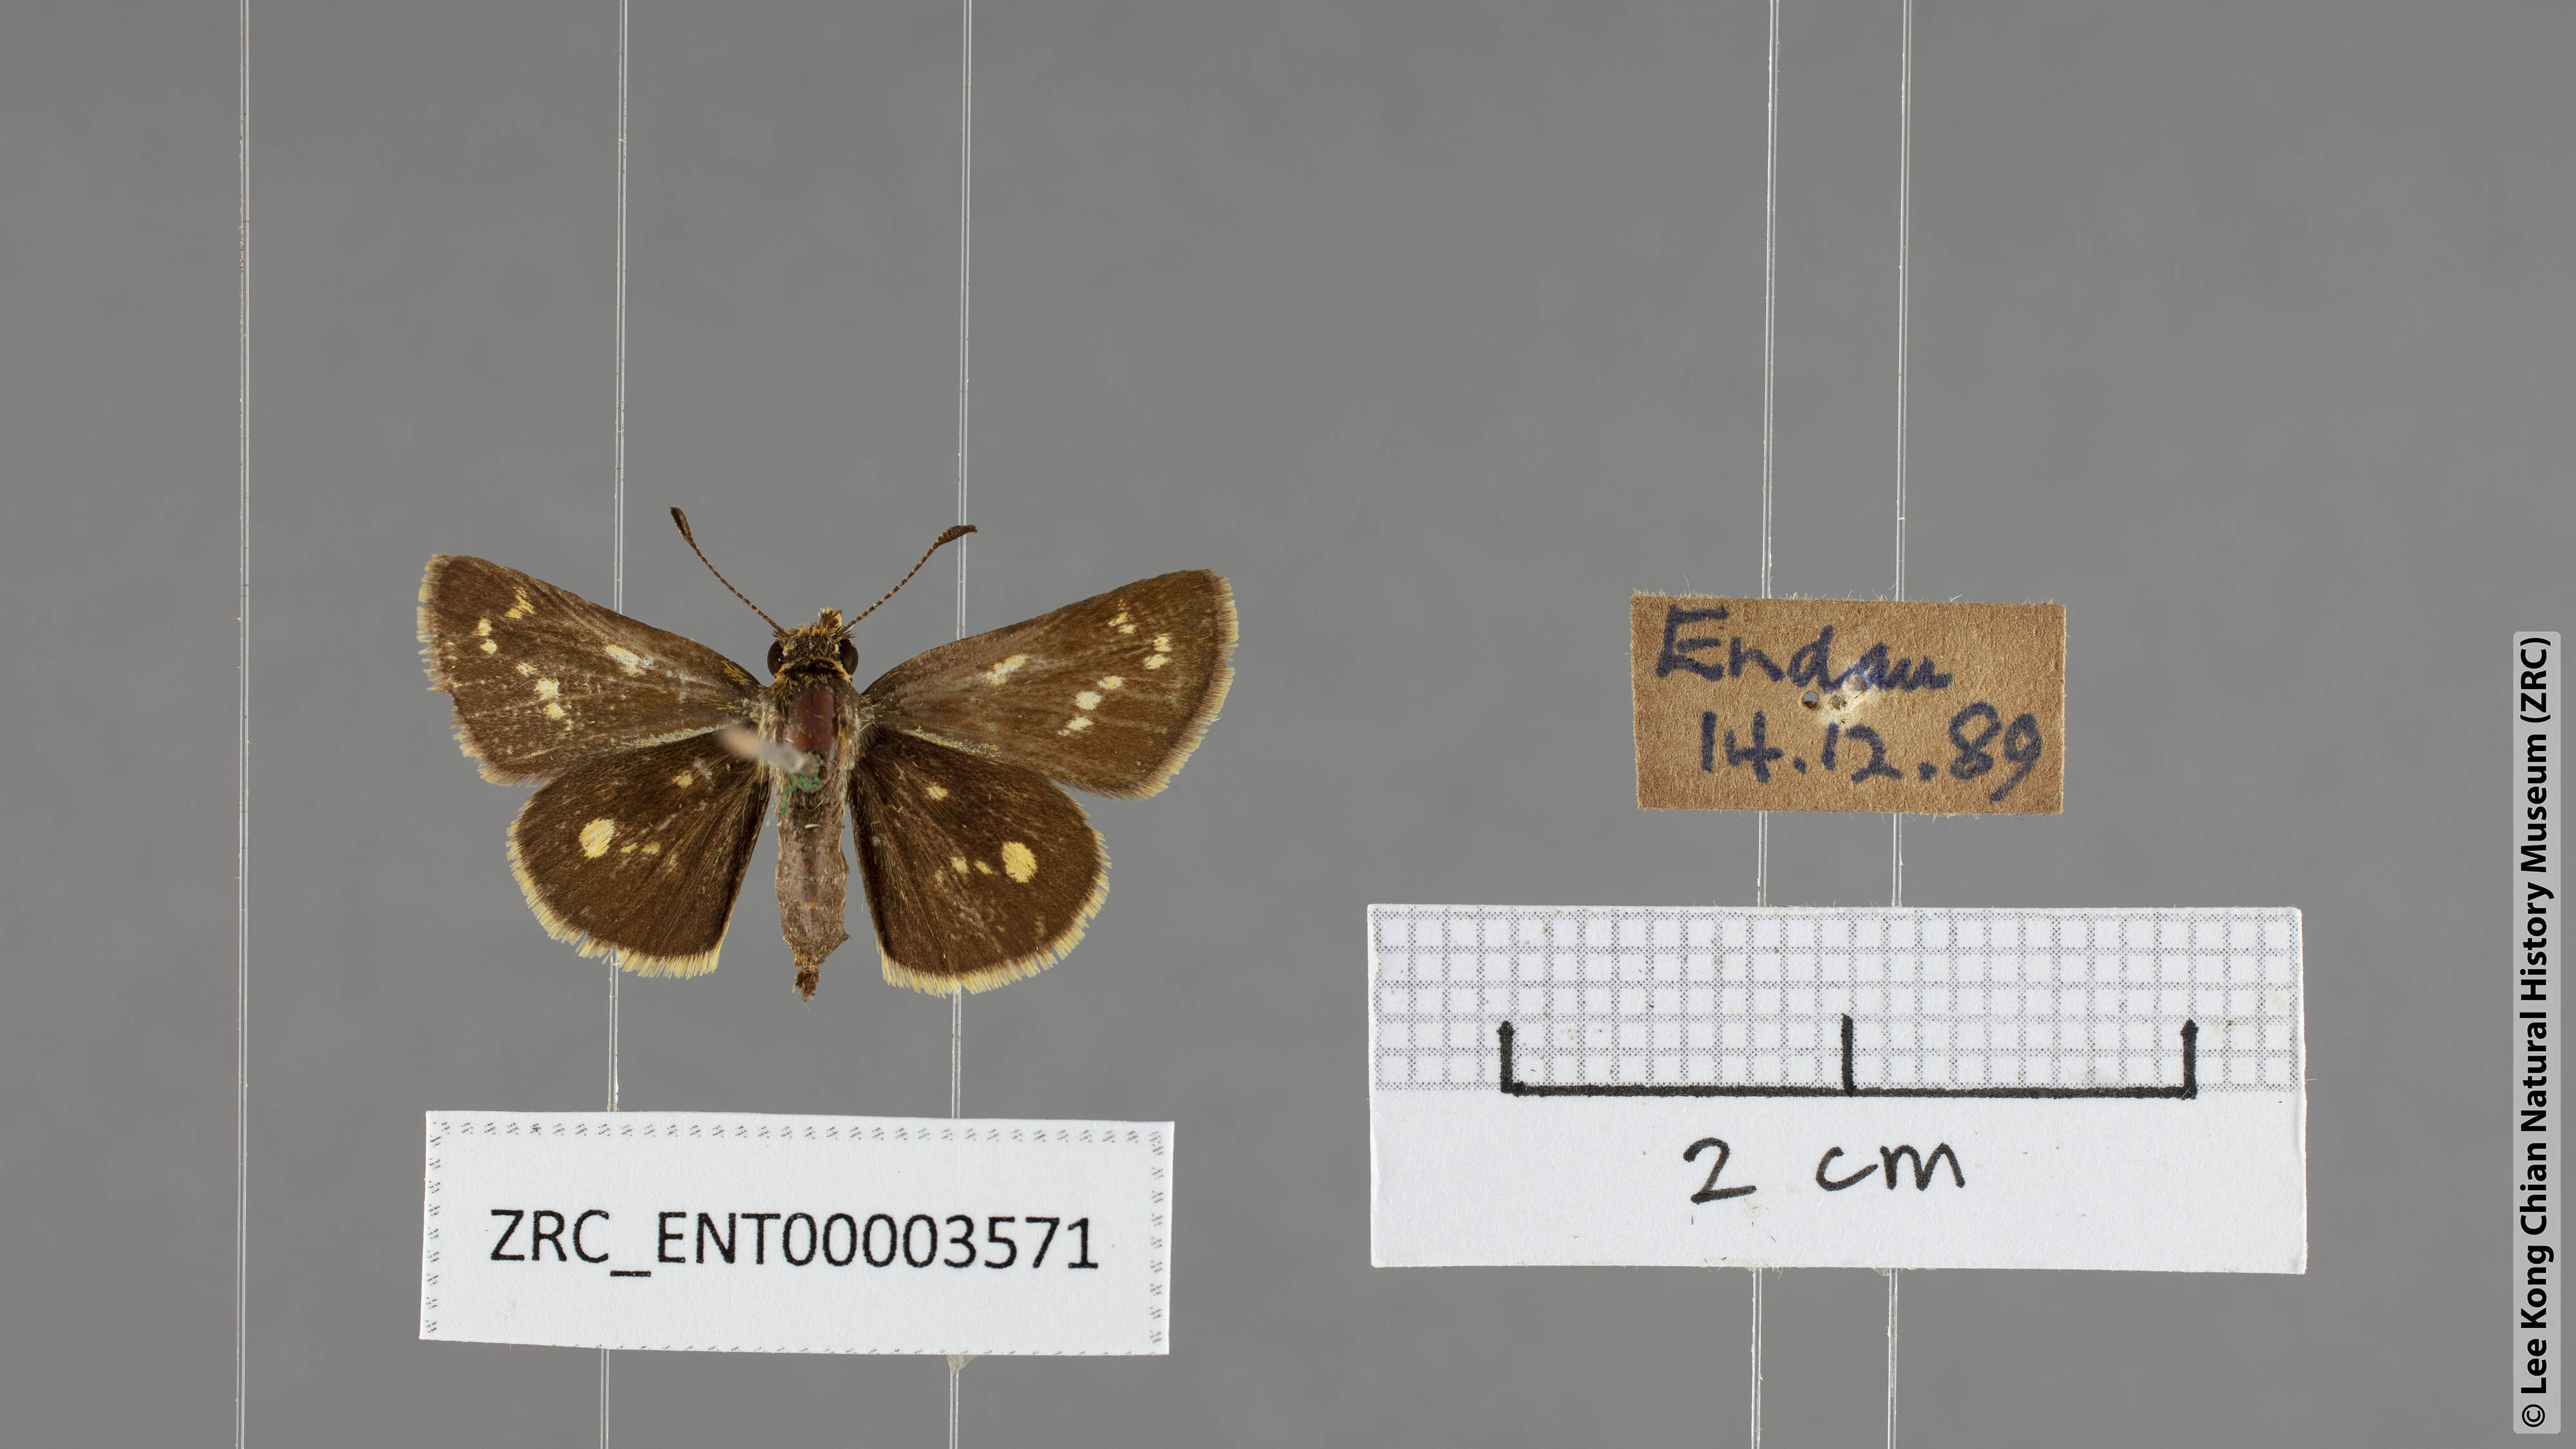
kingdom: Animalia
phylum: Arthropoda
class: Insecta
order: Lepidoptera
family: Hesperiidae
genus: Taractrocera
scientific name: Taractrocera ardonia
